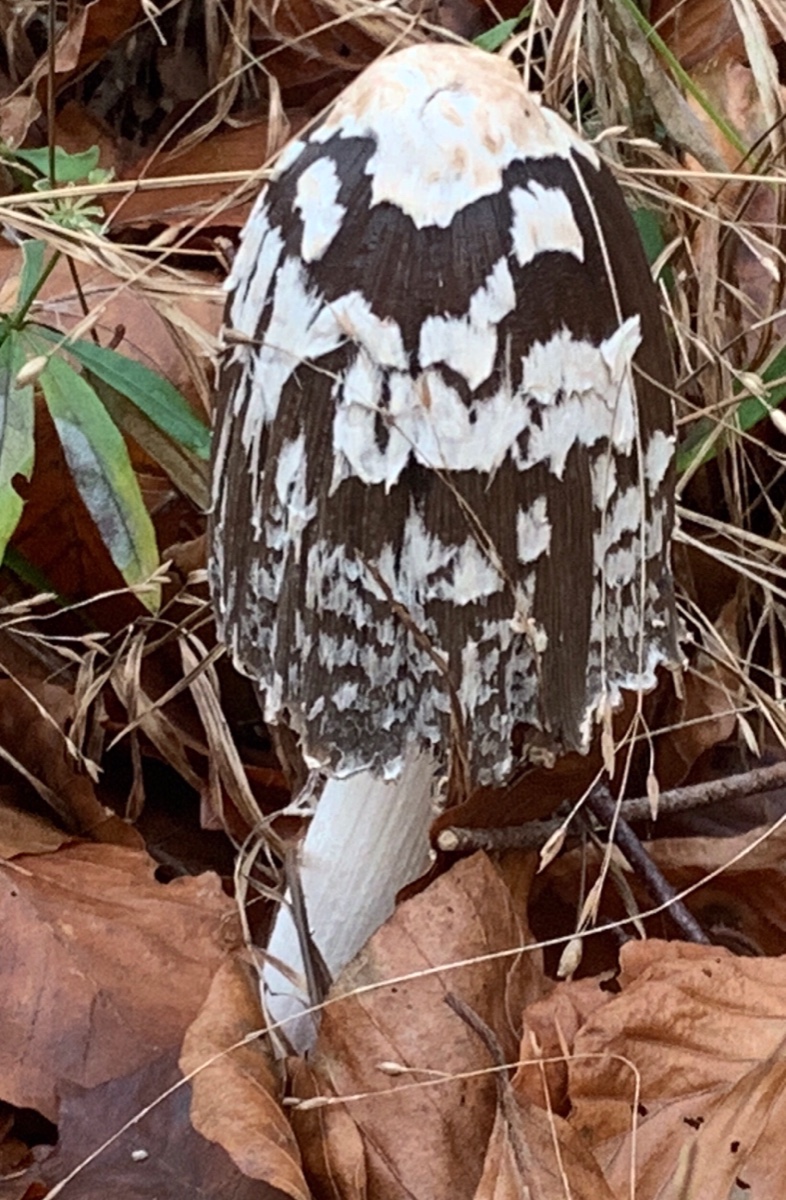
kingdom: Fungi
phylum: Basidiomycota
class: Agaricomycetes
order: Agaricales
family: Psathyrellaceae
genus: Coprinopsis
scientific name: Coprinopsis picacea
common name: skade-blækhat
